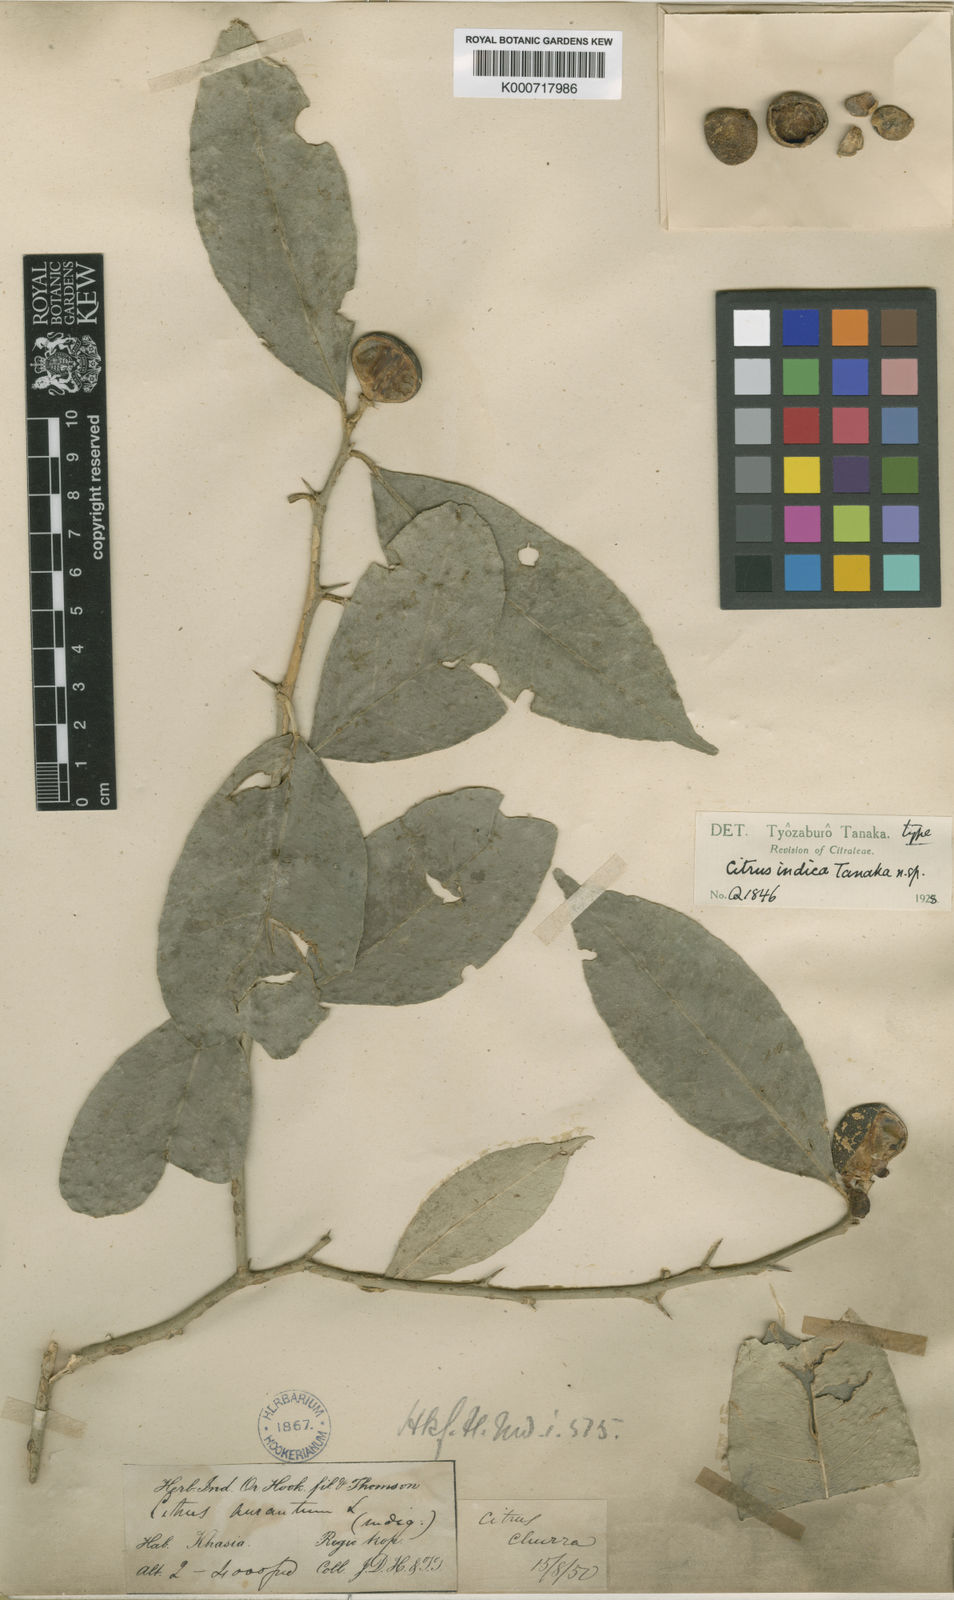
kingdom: Plantae
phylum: Tracheophyta
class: Magnoliopsida
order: Sapindales
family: Rutaceae
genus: Citrus
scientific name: Citrus indica
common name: Indian wild orange
